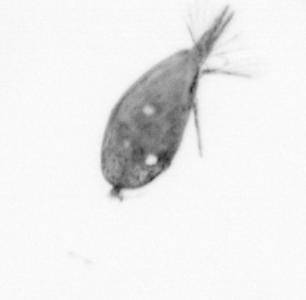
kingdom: Animalia
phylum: Arthropoda
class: Maxillopoda
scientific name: Maxillopoda
